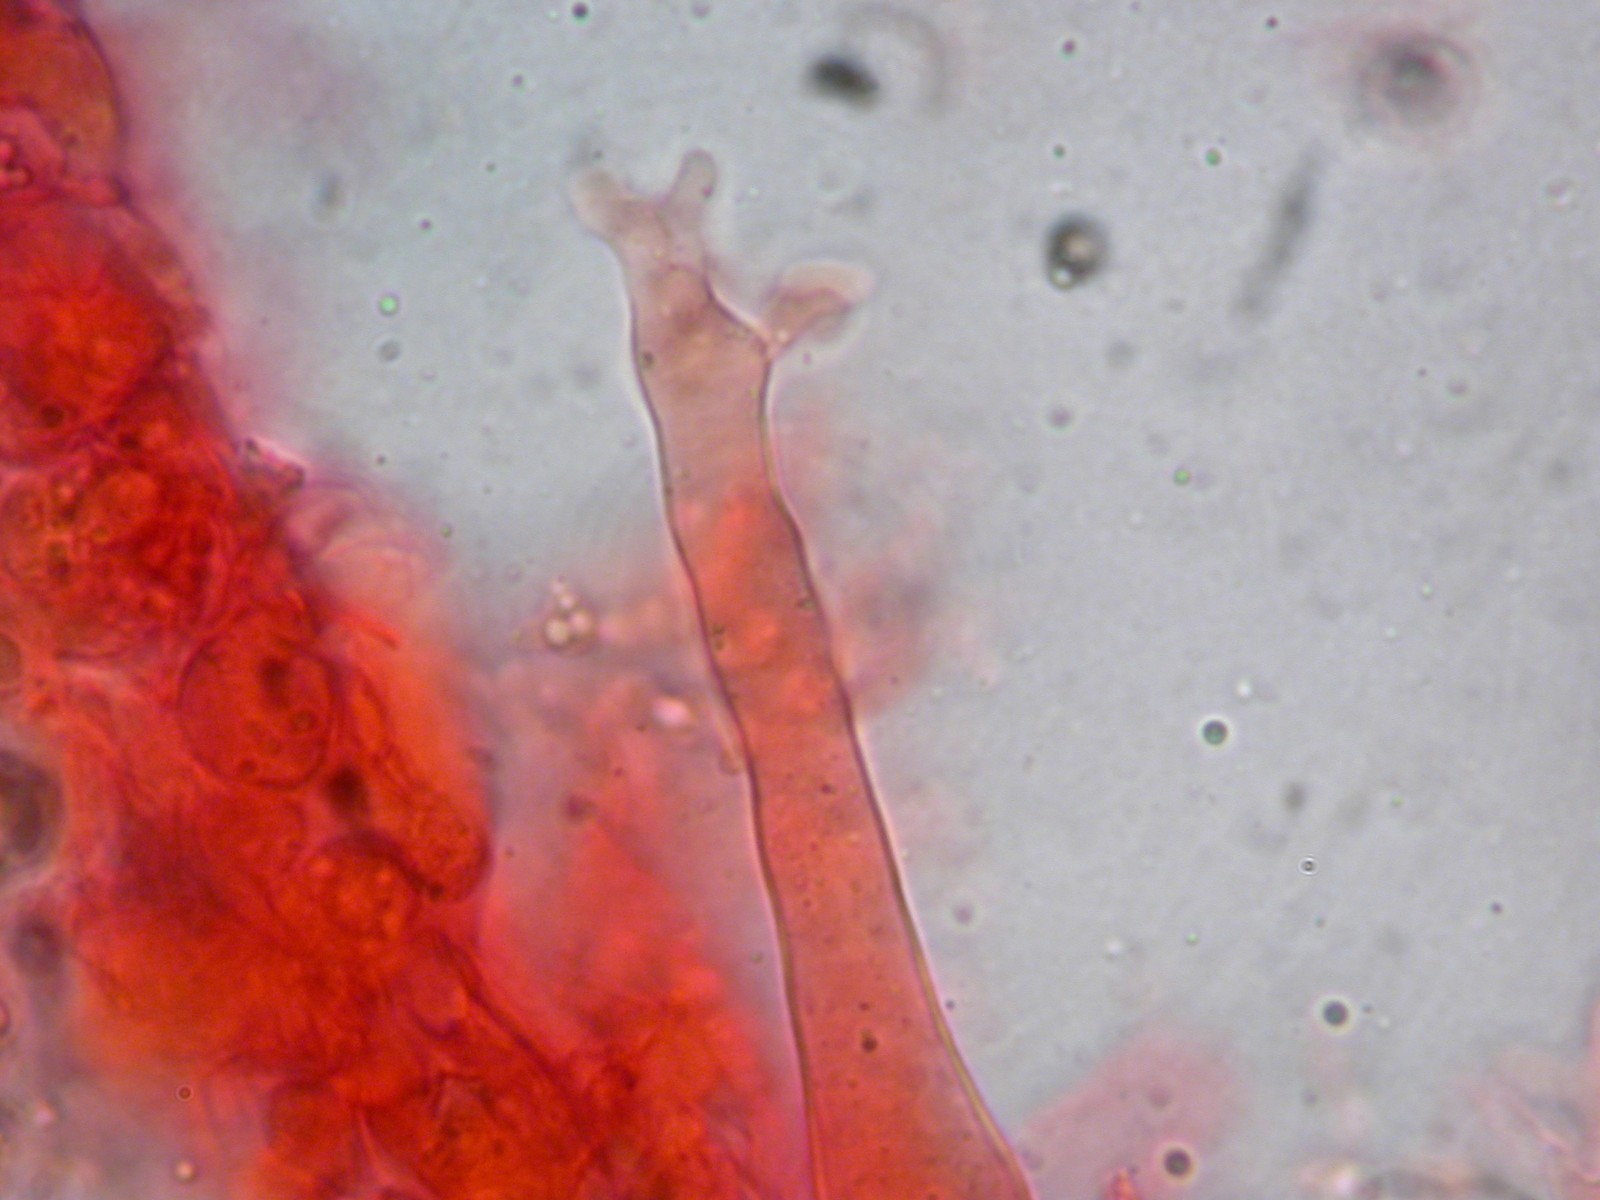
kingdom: Fungi
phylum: Basidiomycota
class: Agaricomycetes
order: Agaricales
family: Mycenaceae
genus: Mycena
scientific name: Mycena galopus
